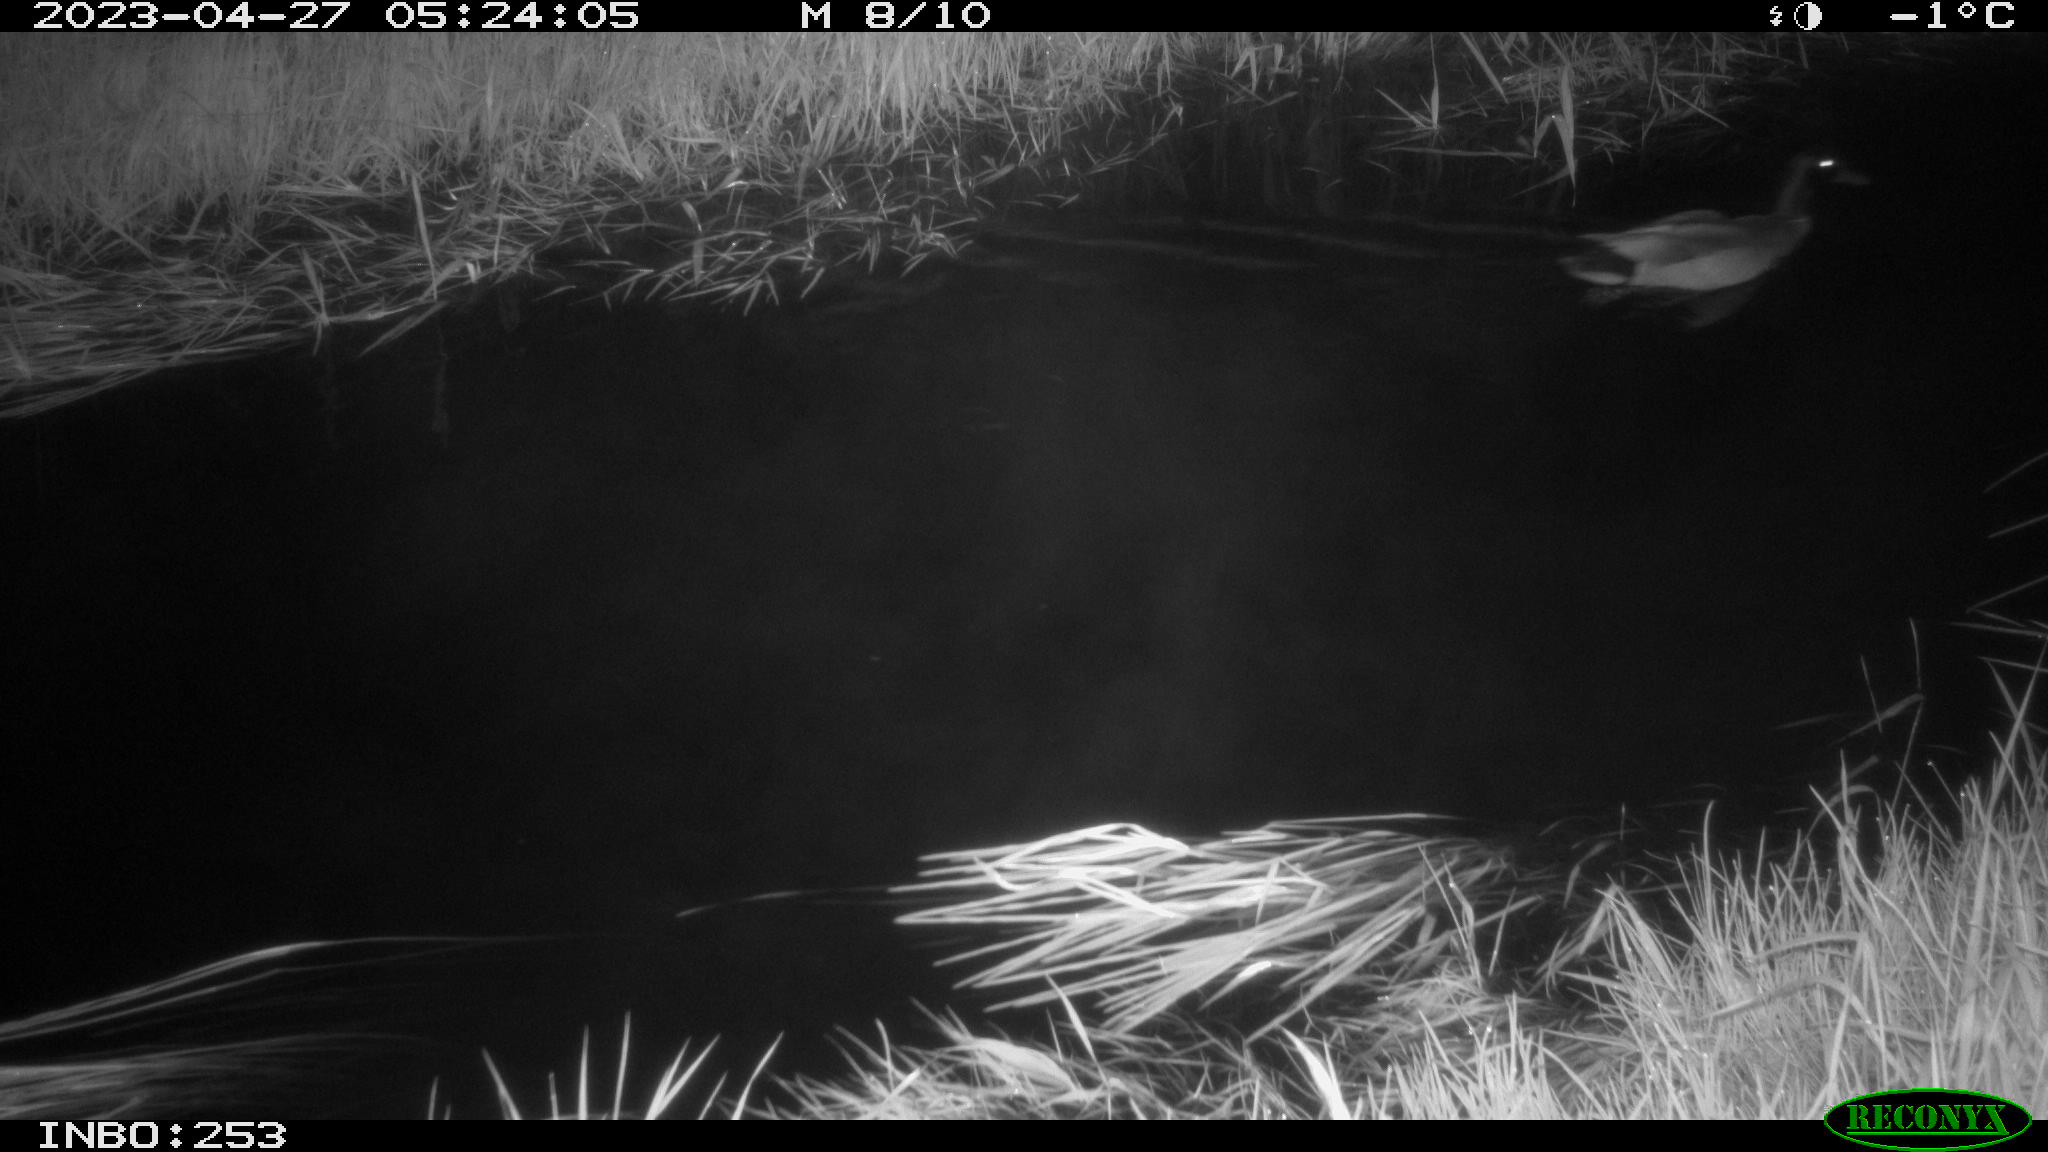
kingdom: Animalia
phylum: Chordata
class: Aves
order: Anseriformes
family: Anatidae
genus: Anas
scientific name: Anas
